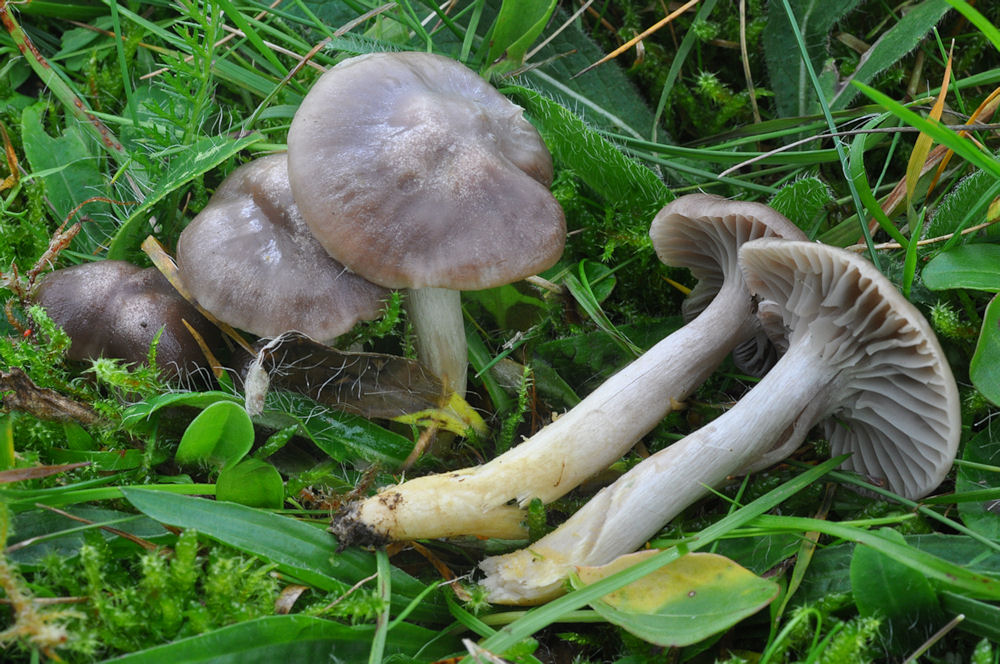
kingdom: Fungi
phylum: Basidiomycota
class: Agaricomycetes
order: Agaricales
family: Hygrophoraceae
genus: Cuphophyllus
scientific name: Cuphophyllus flavipes
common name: gulfodet vokshat
